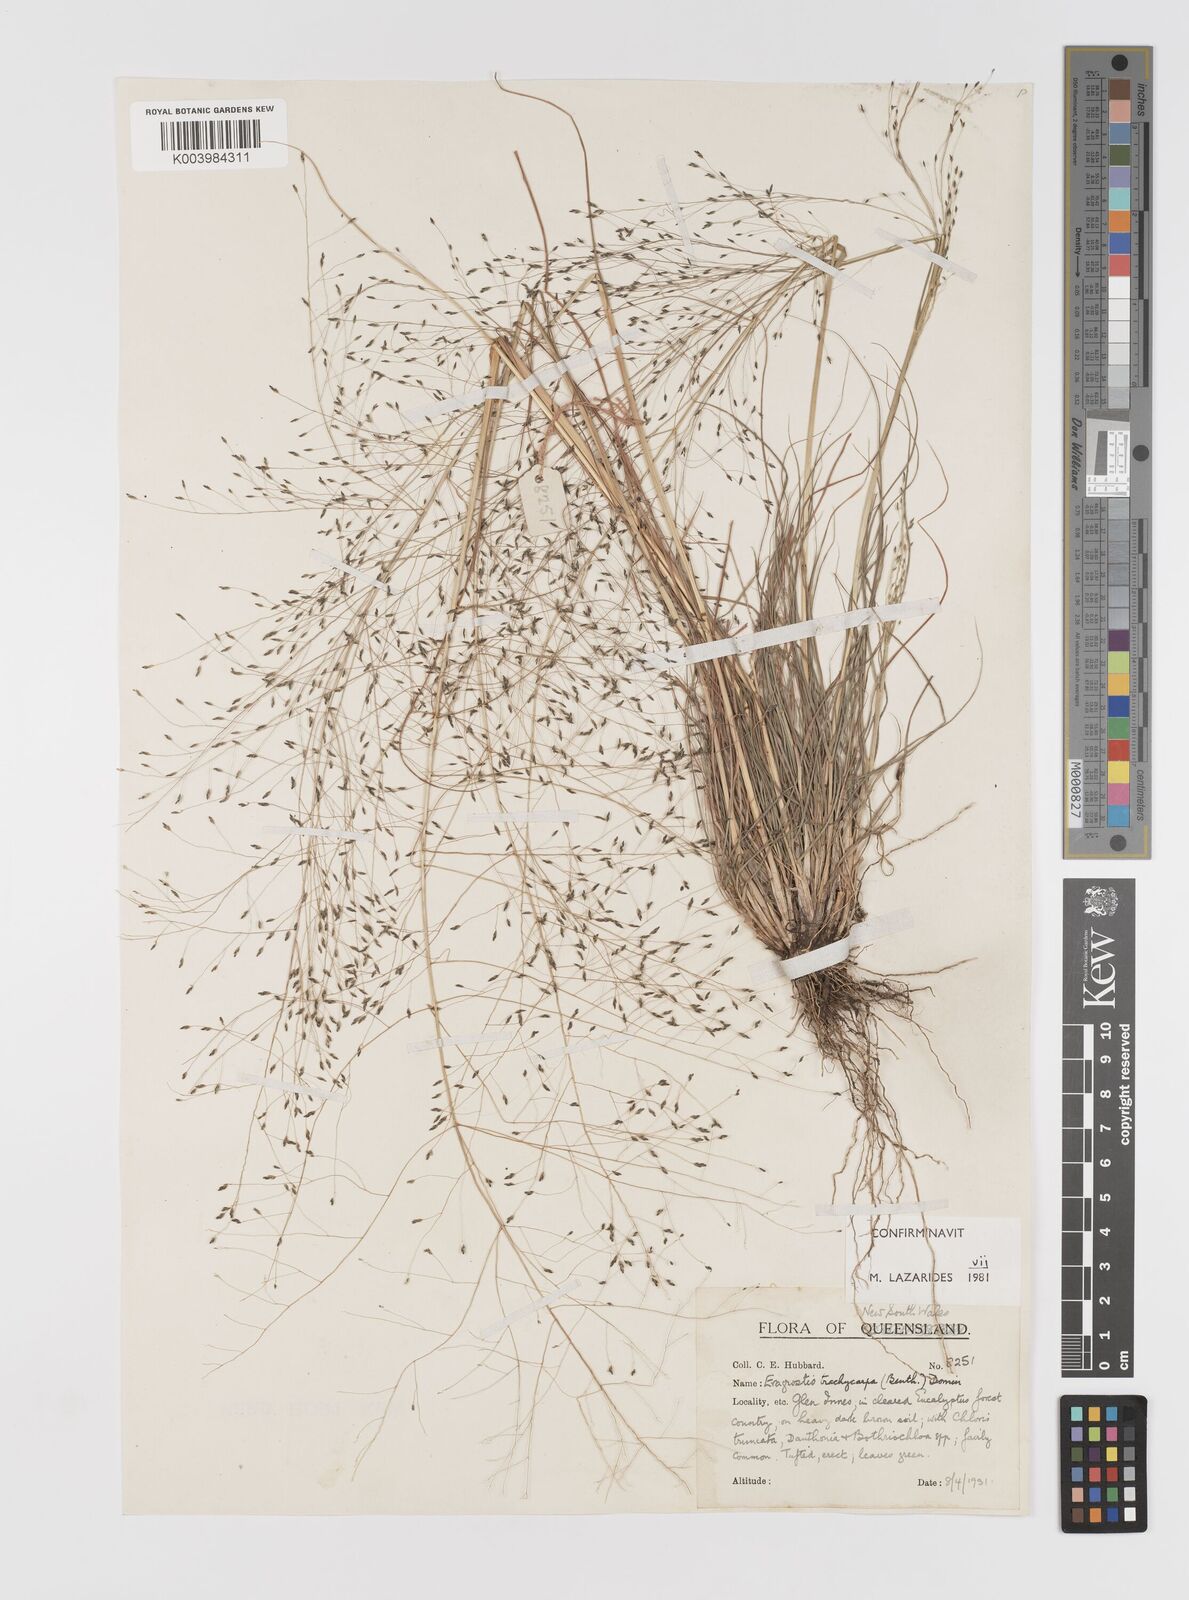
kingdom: Plantae
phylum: Tracheophyta
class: Liliopsida
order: Poales
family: Poaceae
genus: Eragrostis
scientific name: Eragrostis trachycarpa
